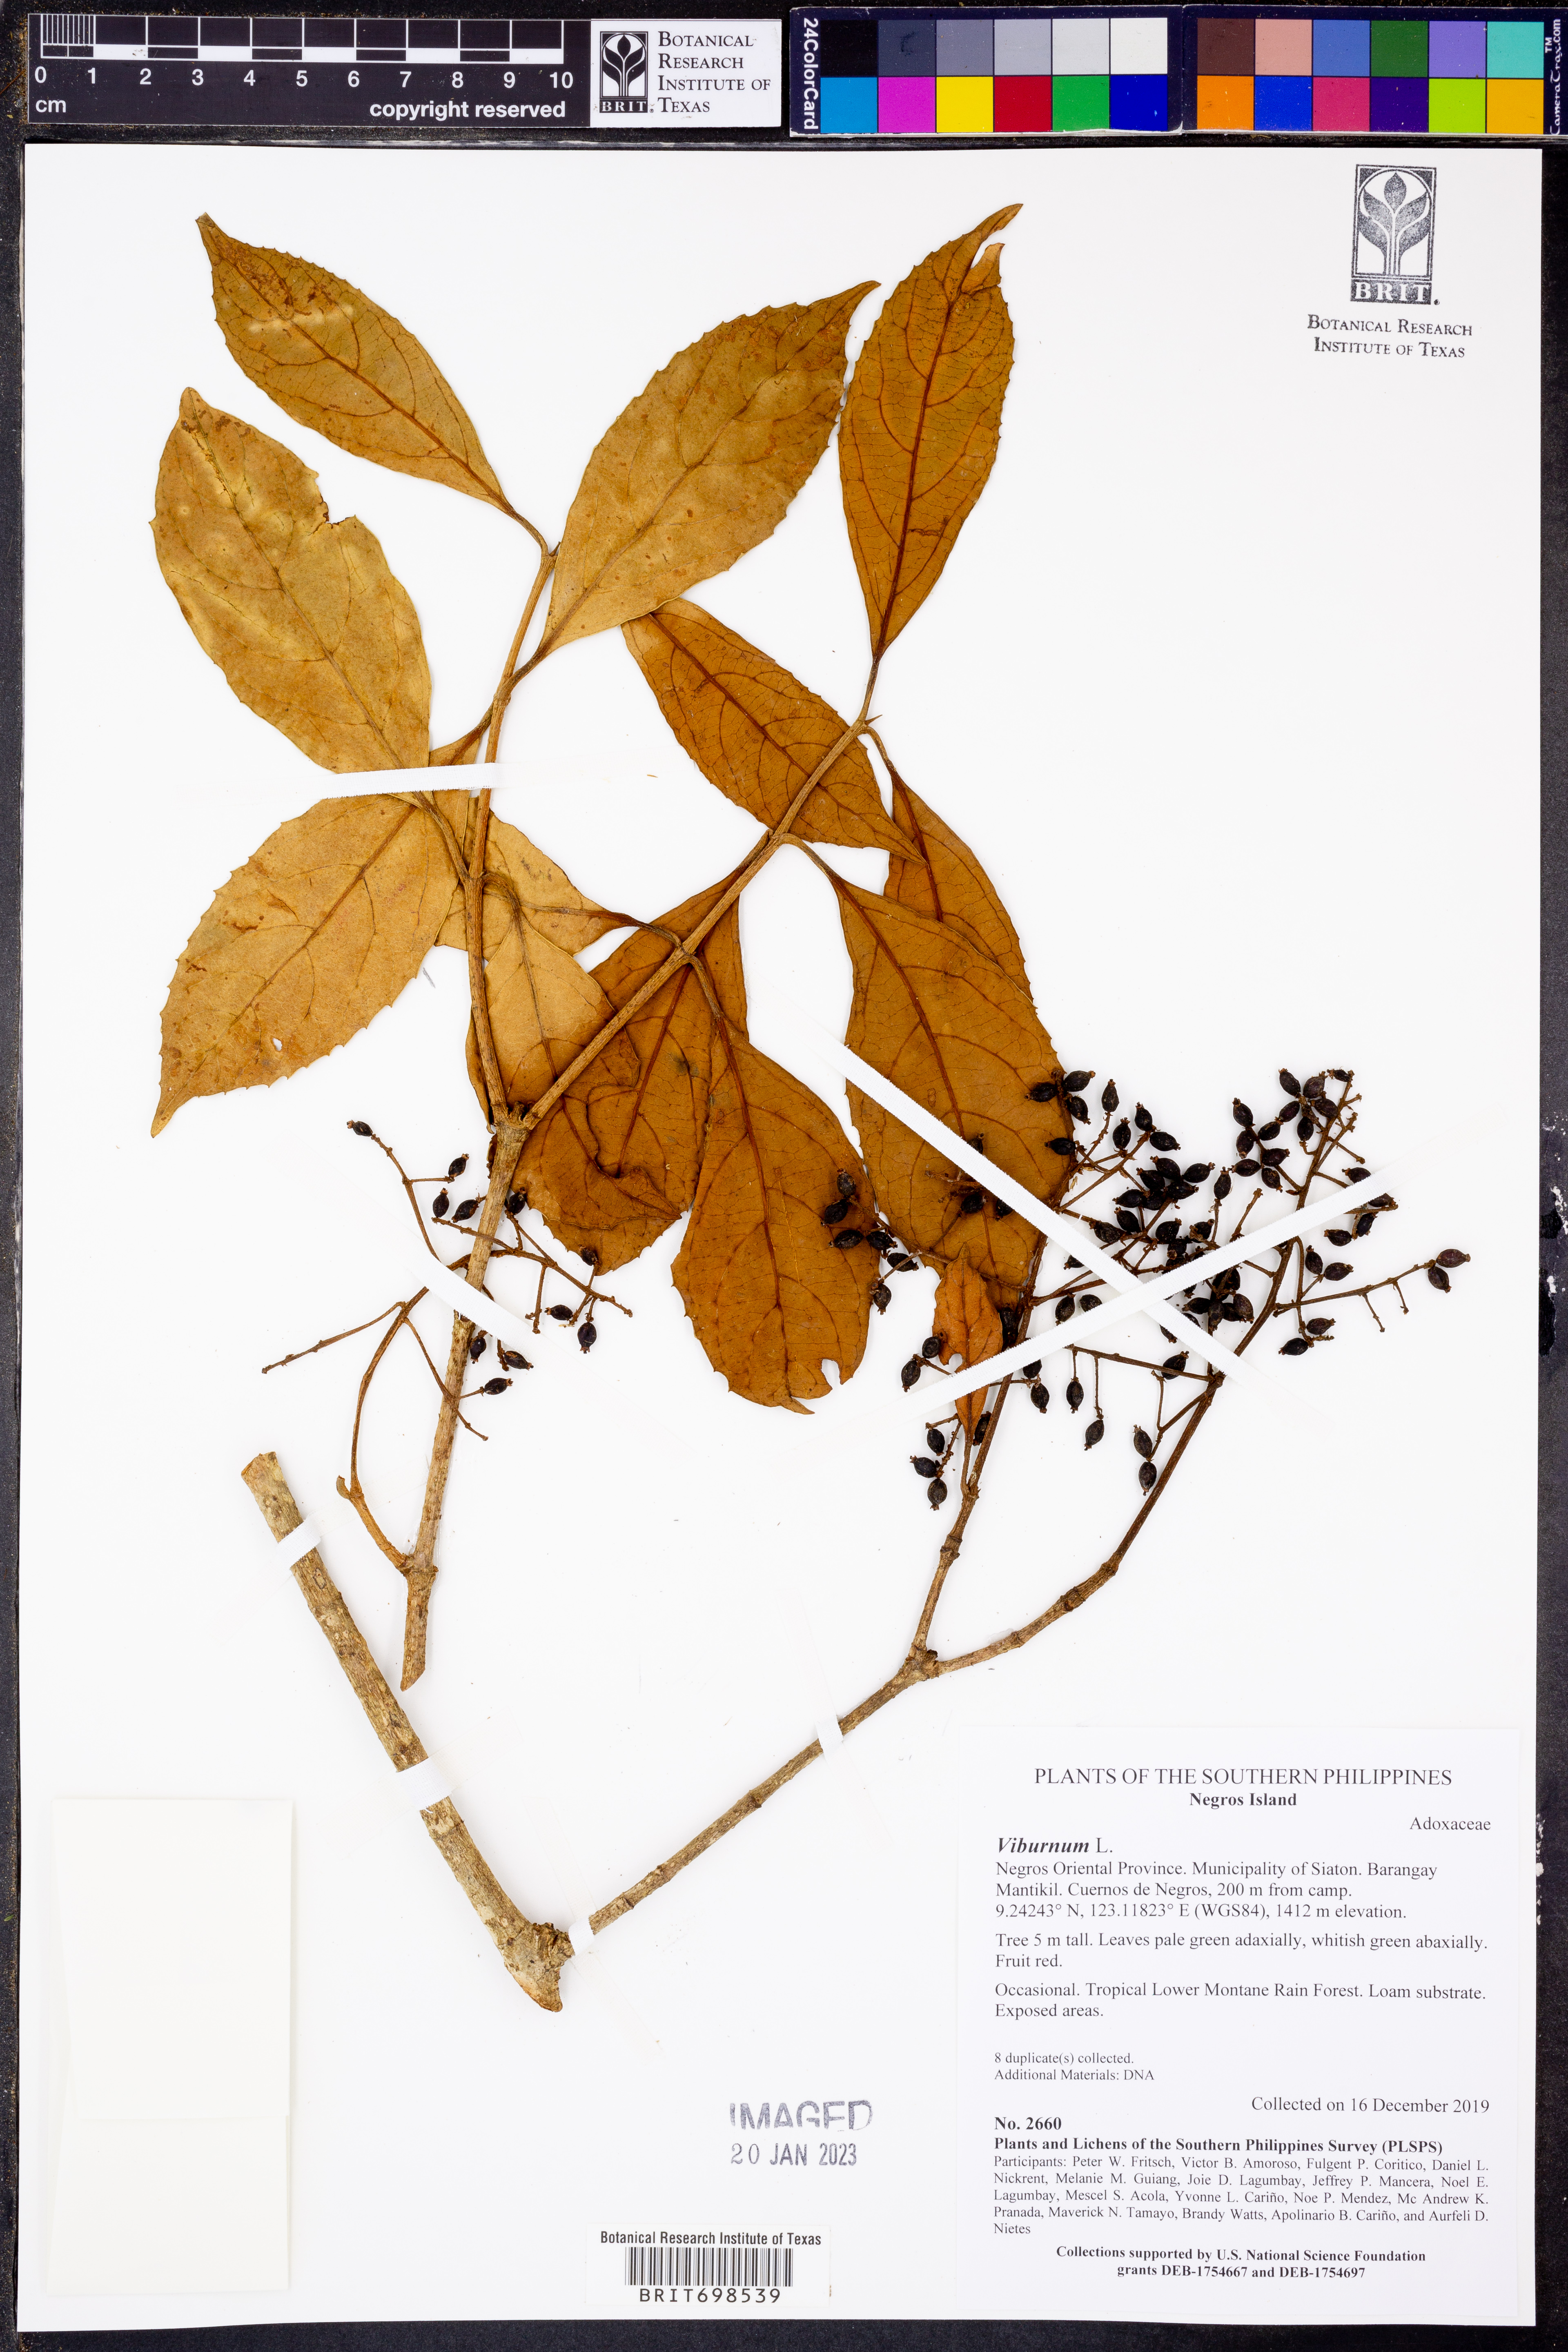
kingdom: Plantae
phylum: Tracheophyta
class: Magnoliopsida
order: Dipsacales
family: Viburnaceae
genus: Viburnum
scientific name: Viburnum
